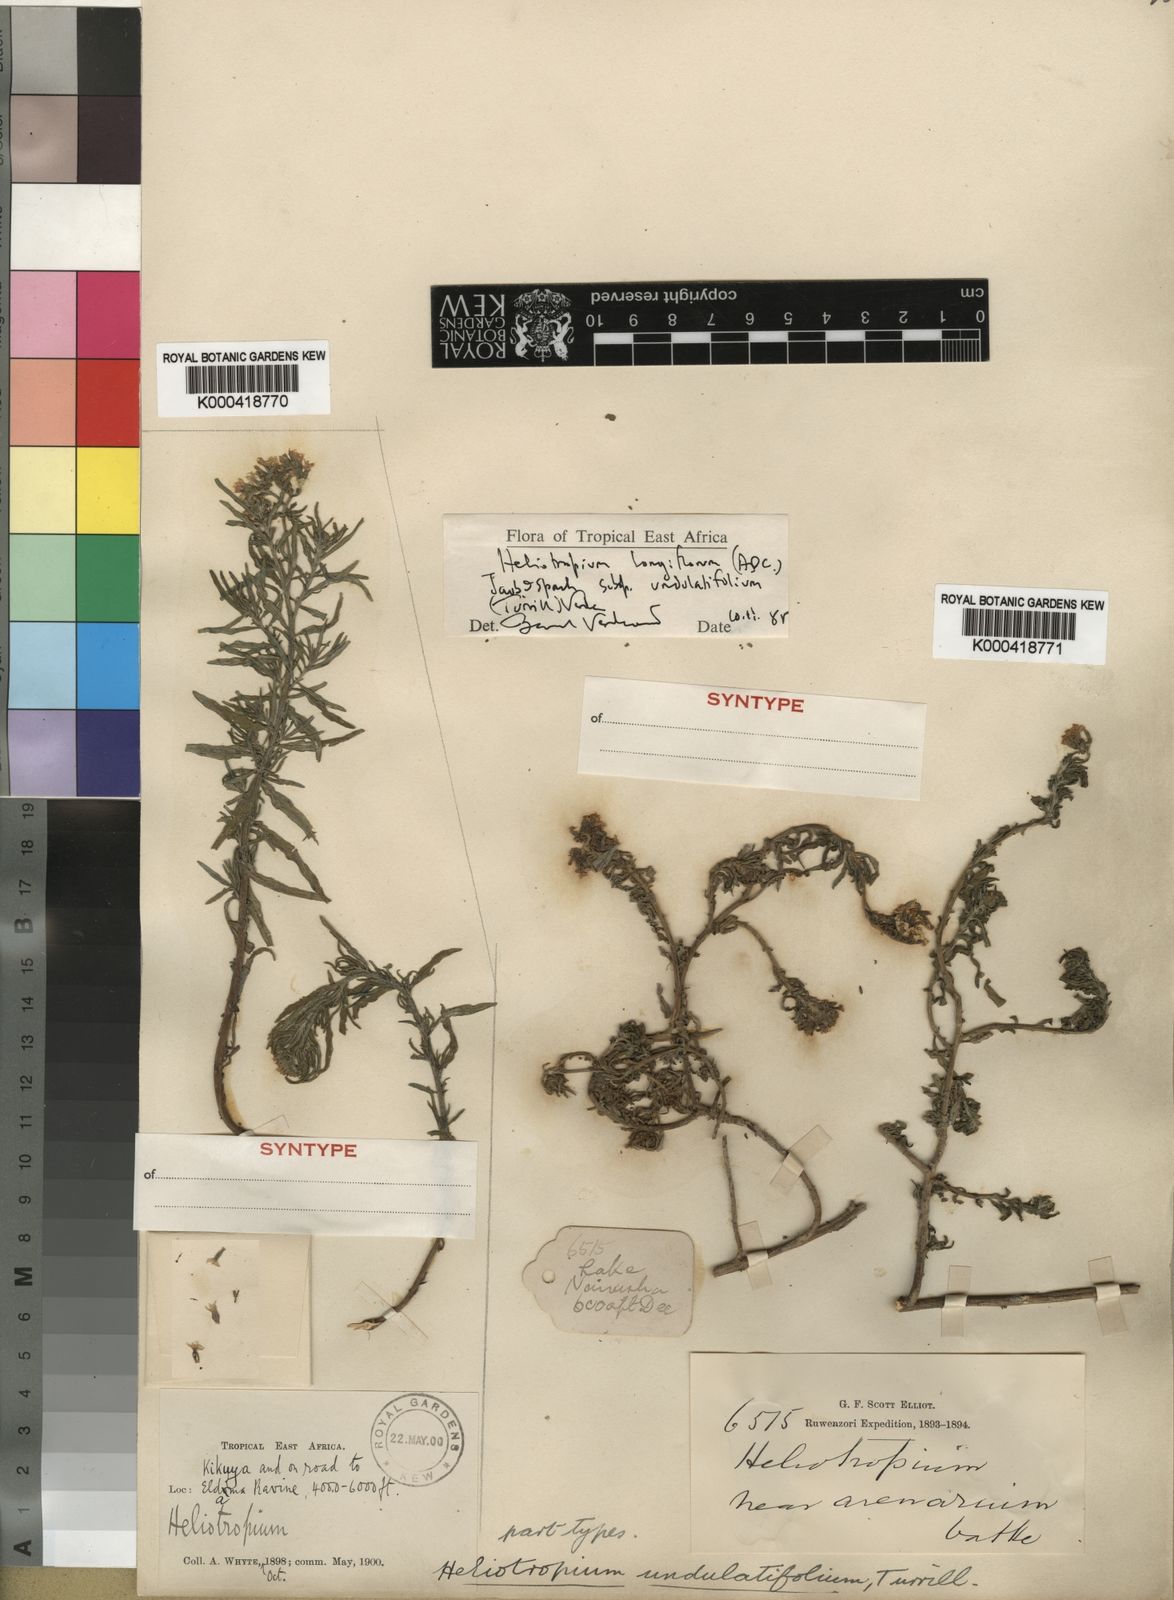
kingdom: Plantae
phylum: Tracheophyta
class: Magnoliopsida
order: Boraginales
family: Heliotropiaceae
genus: Heliotropium
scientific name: Heliotropium longiflorum
